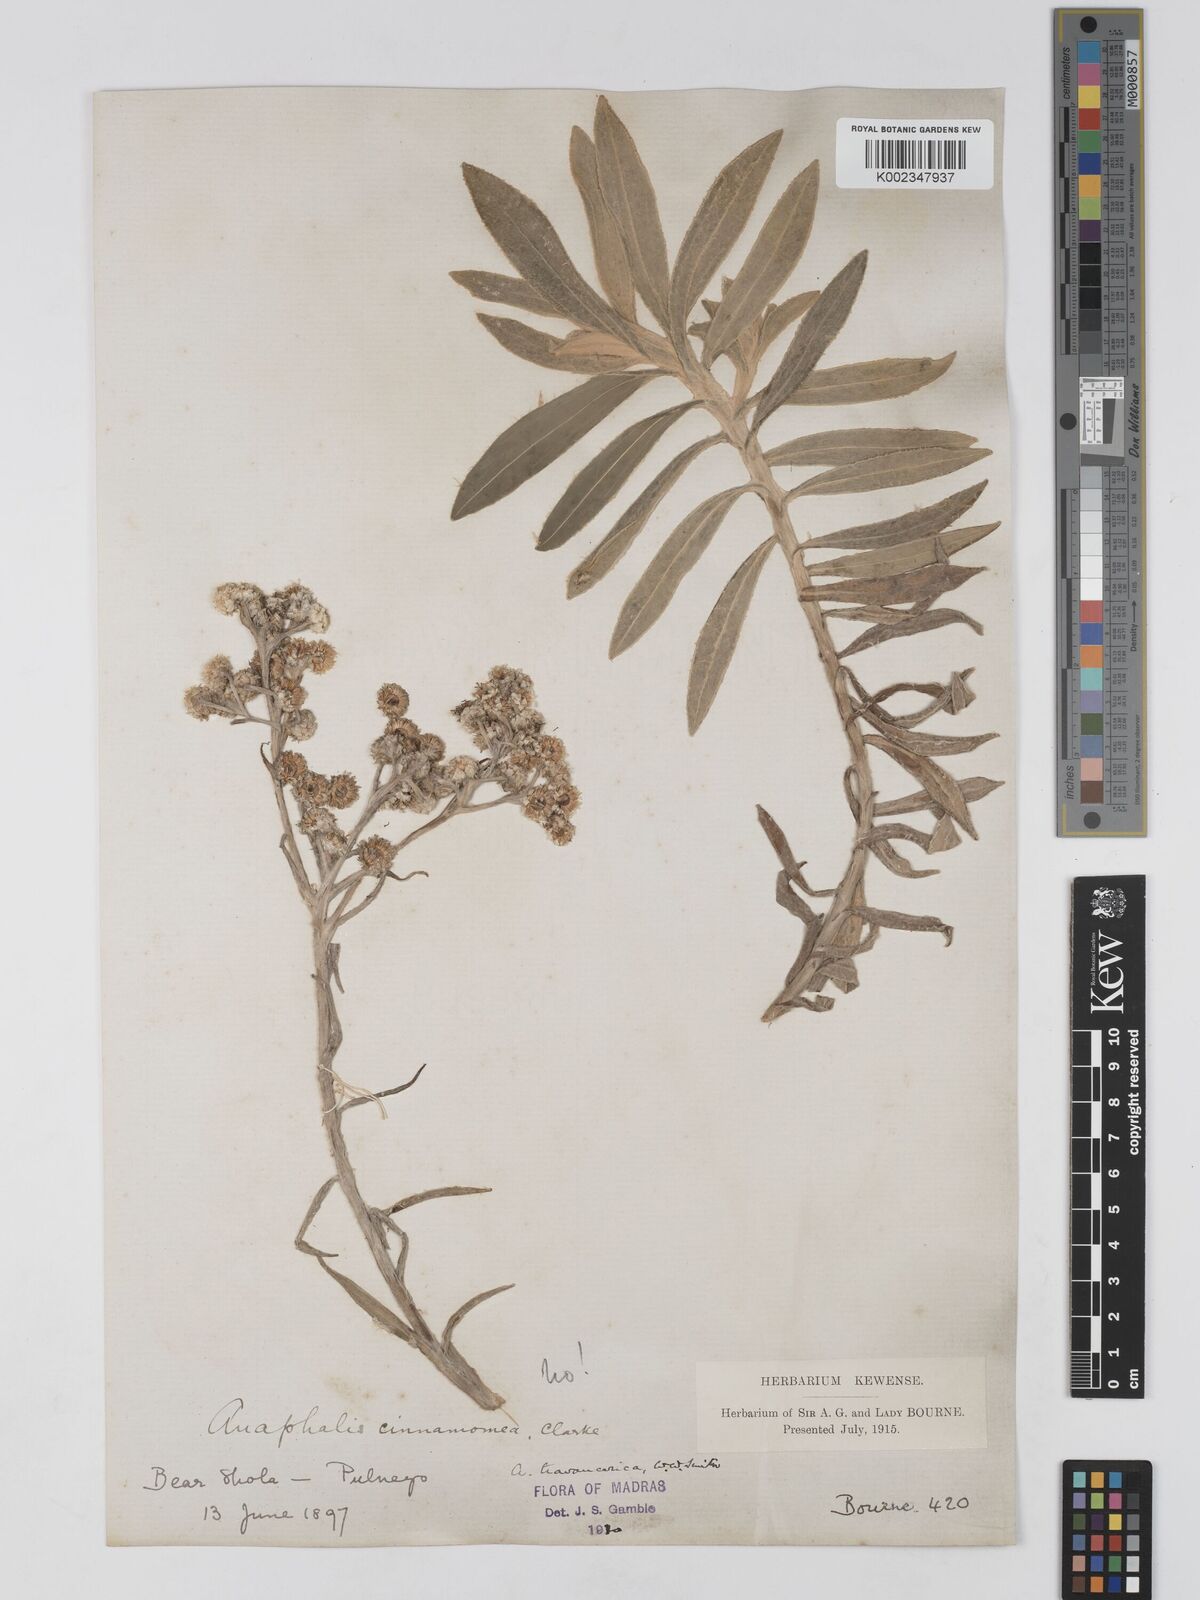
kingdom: Plantae
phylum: Tracheophyta
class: Magnoliopsida
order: Asterales
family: Asteraceae
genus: Anaphalis
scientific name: Anaphalis travancorica
